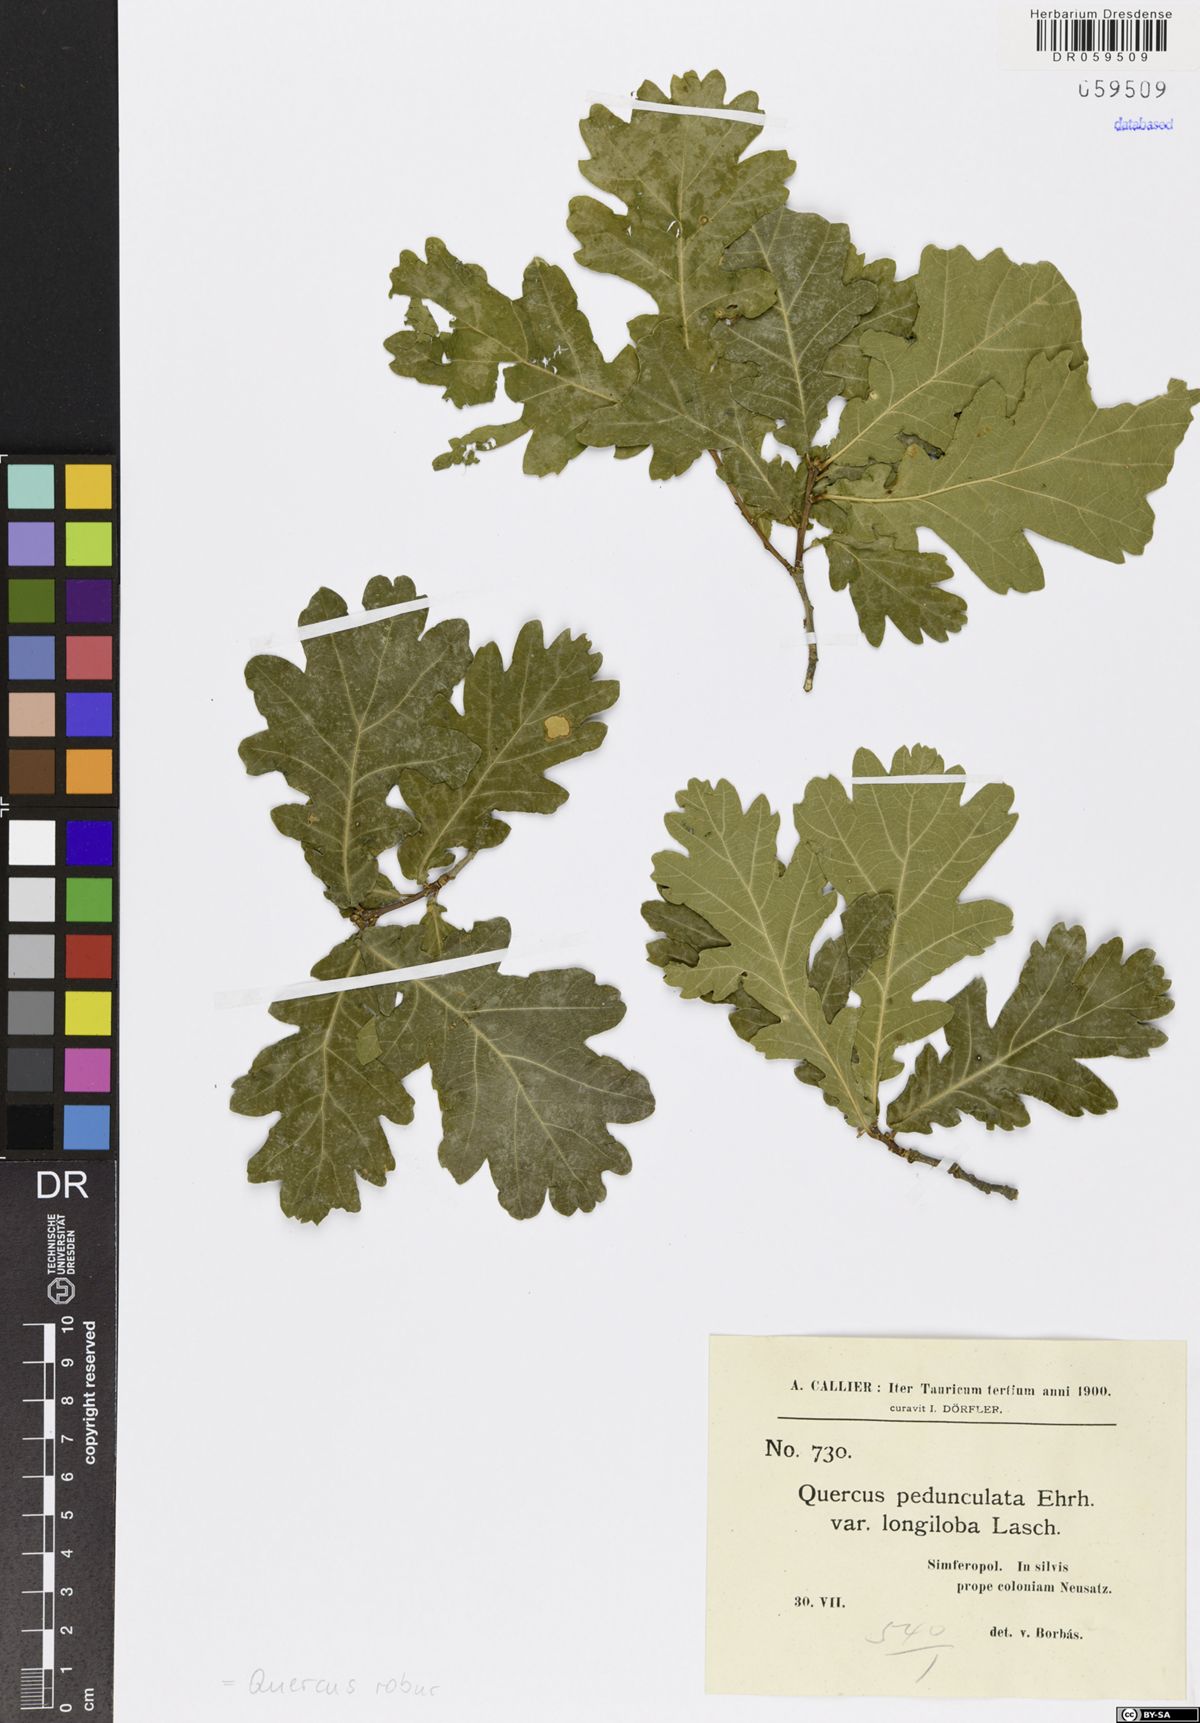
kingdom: Plantae
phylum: Tracheophyta
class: Magnoliopsida
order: Fagales
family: Fagaceae
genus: Quercus
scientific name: Quercus robur
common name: Pedunculate oak
